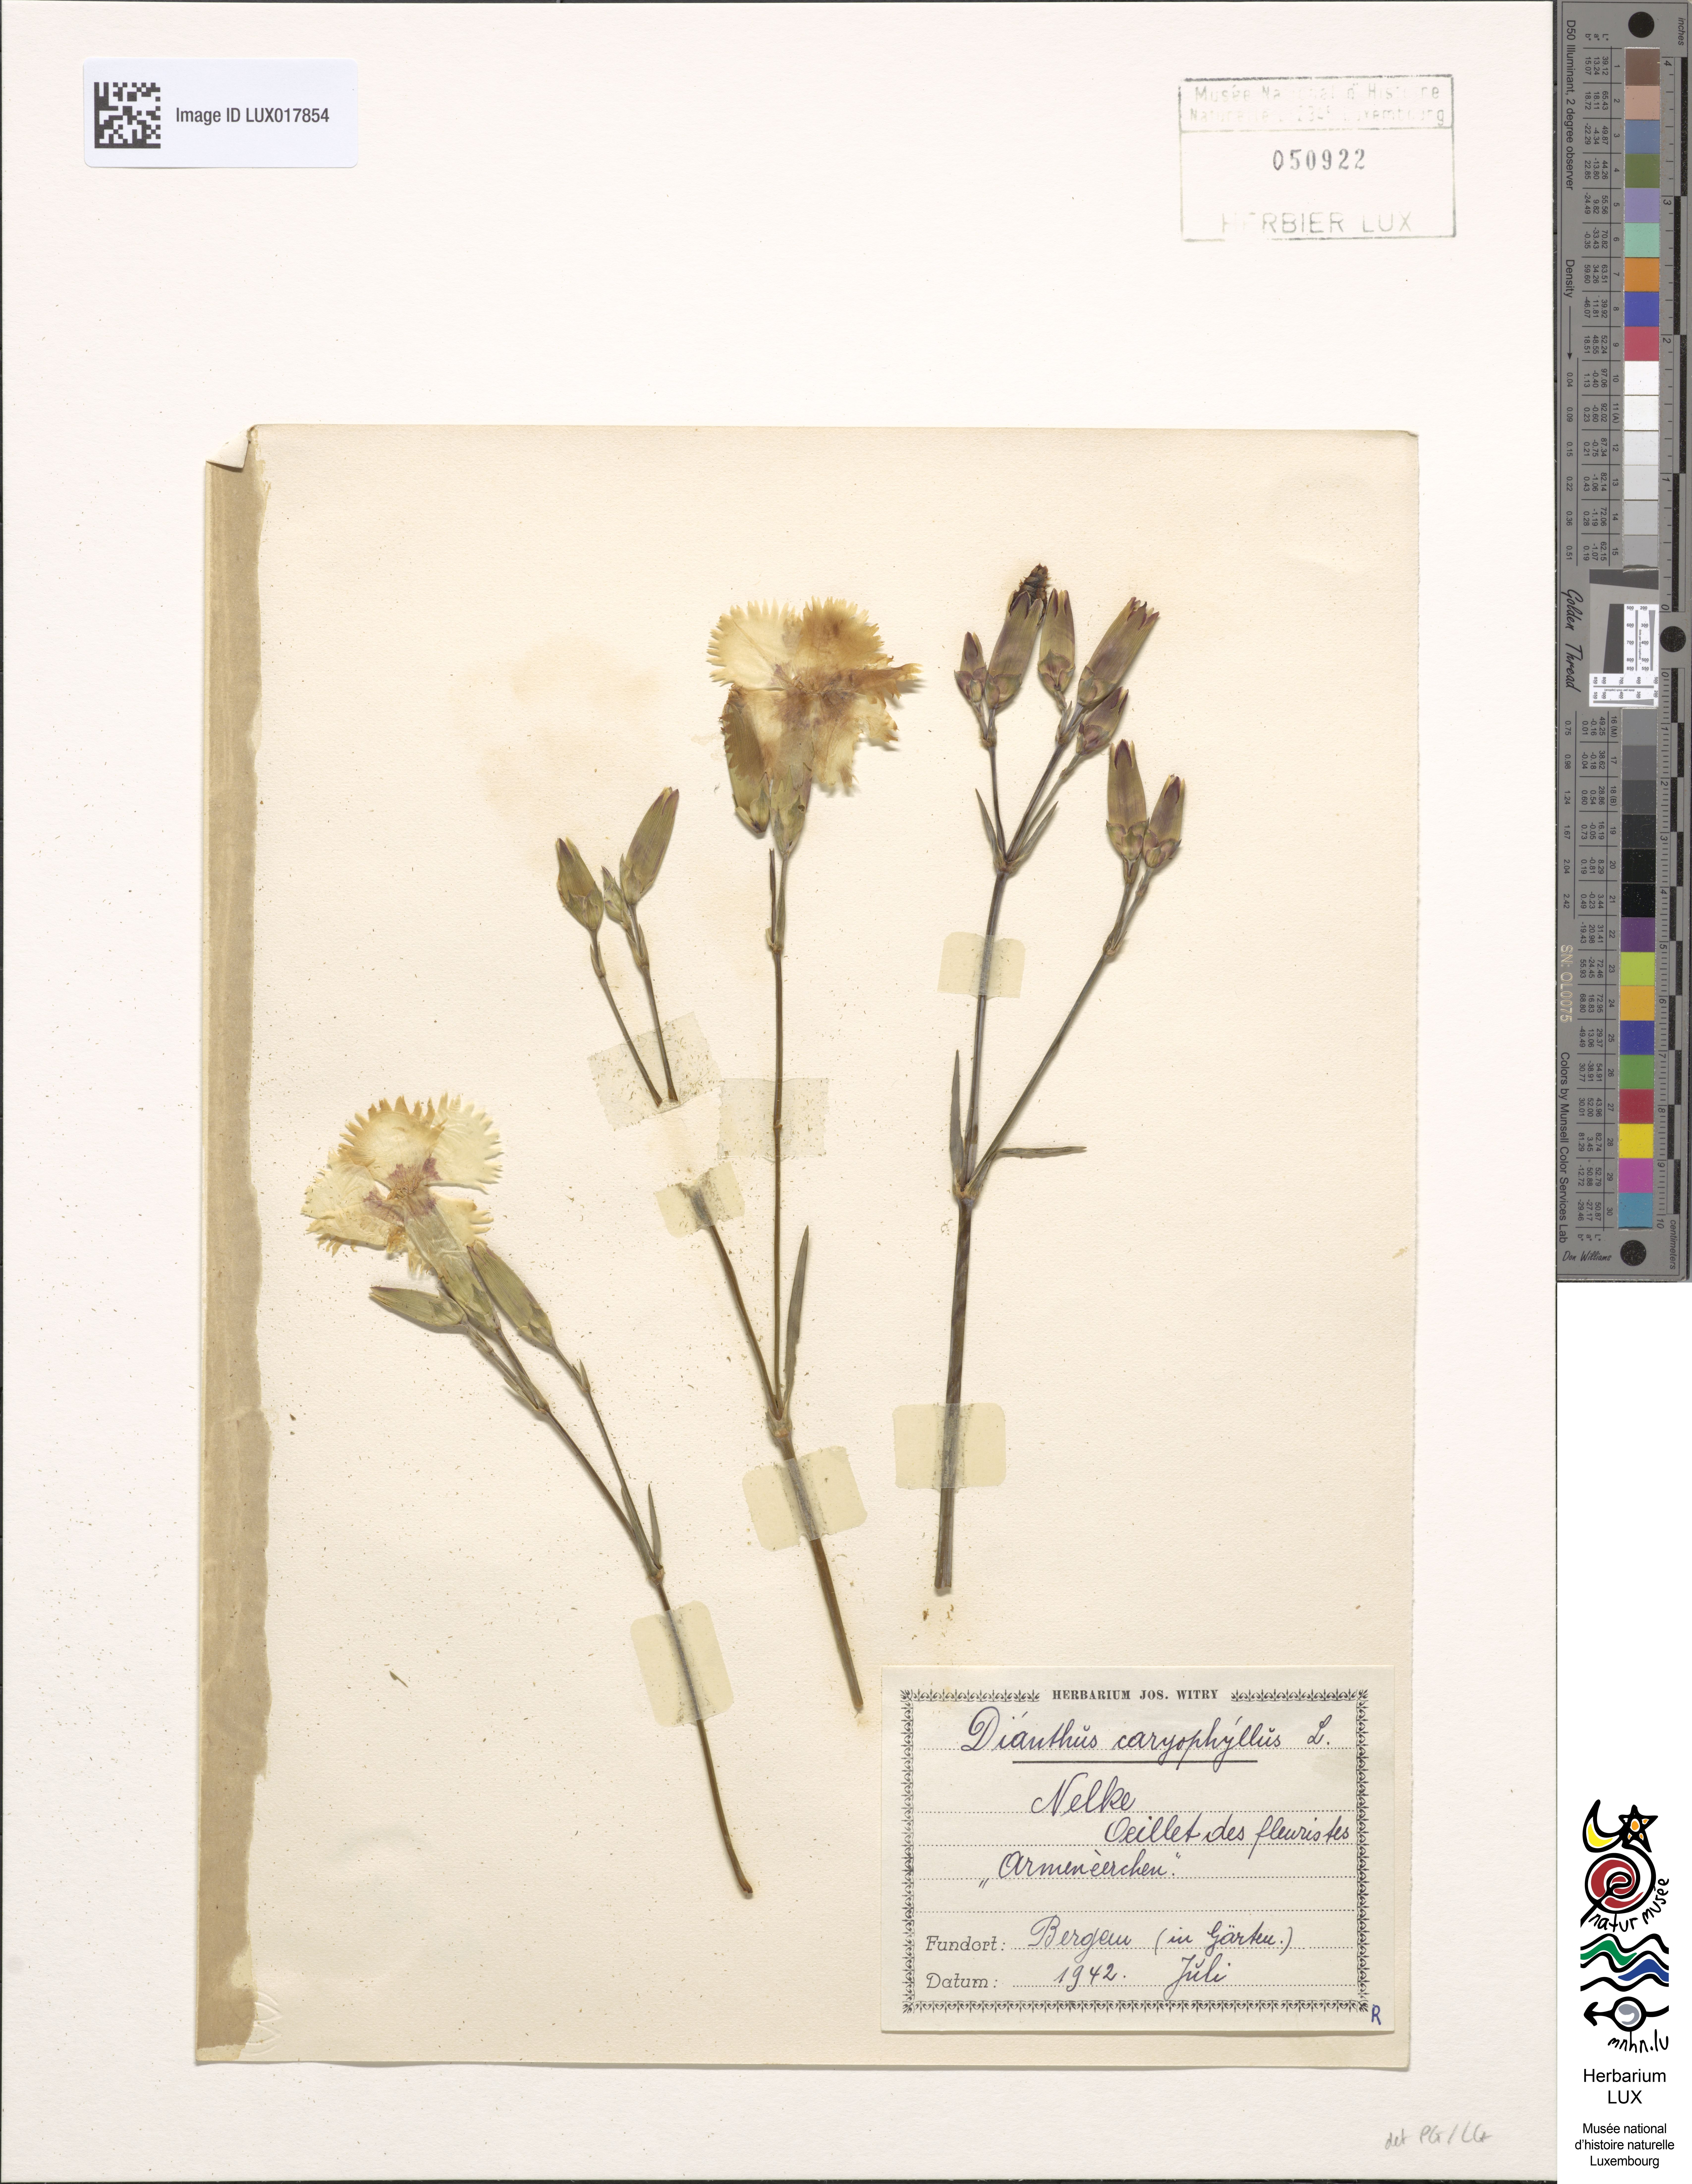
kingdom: Plantae
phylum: Tracheophyta
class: Magnoliopsida
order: Caryophyllales
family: Caryophyllaceae
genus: Dianthus
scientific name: Dianthus caryophyllus
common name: Clove pink
